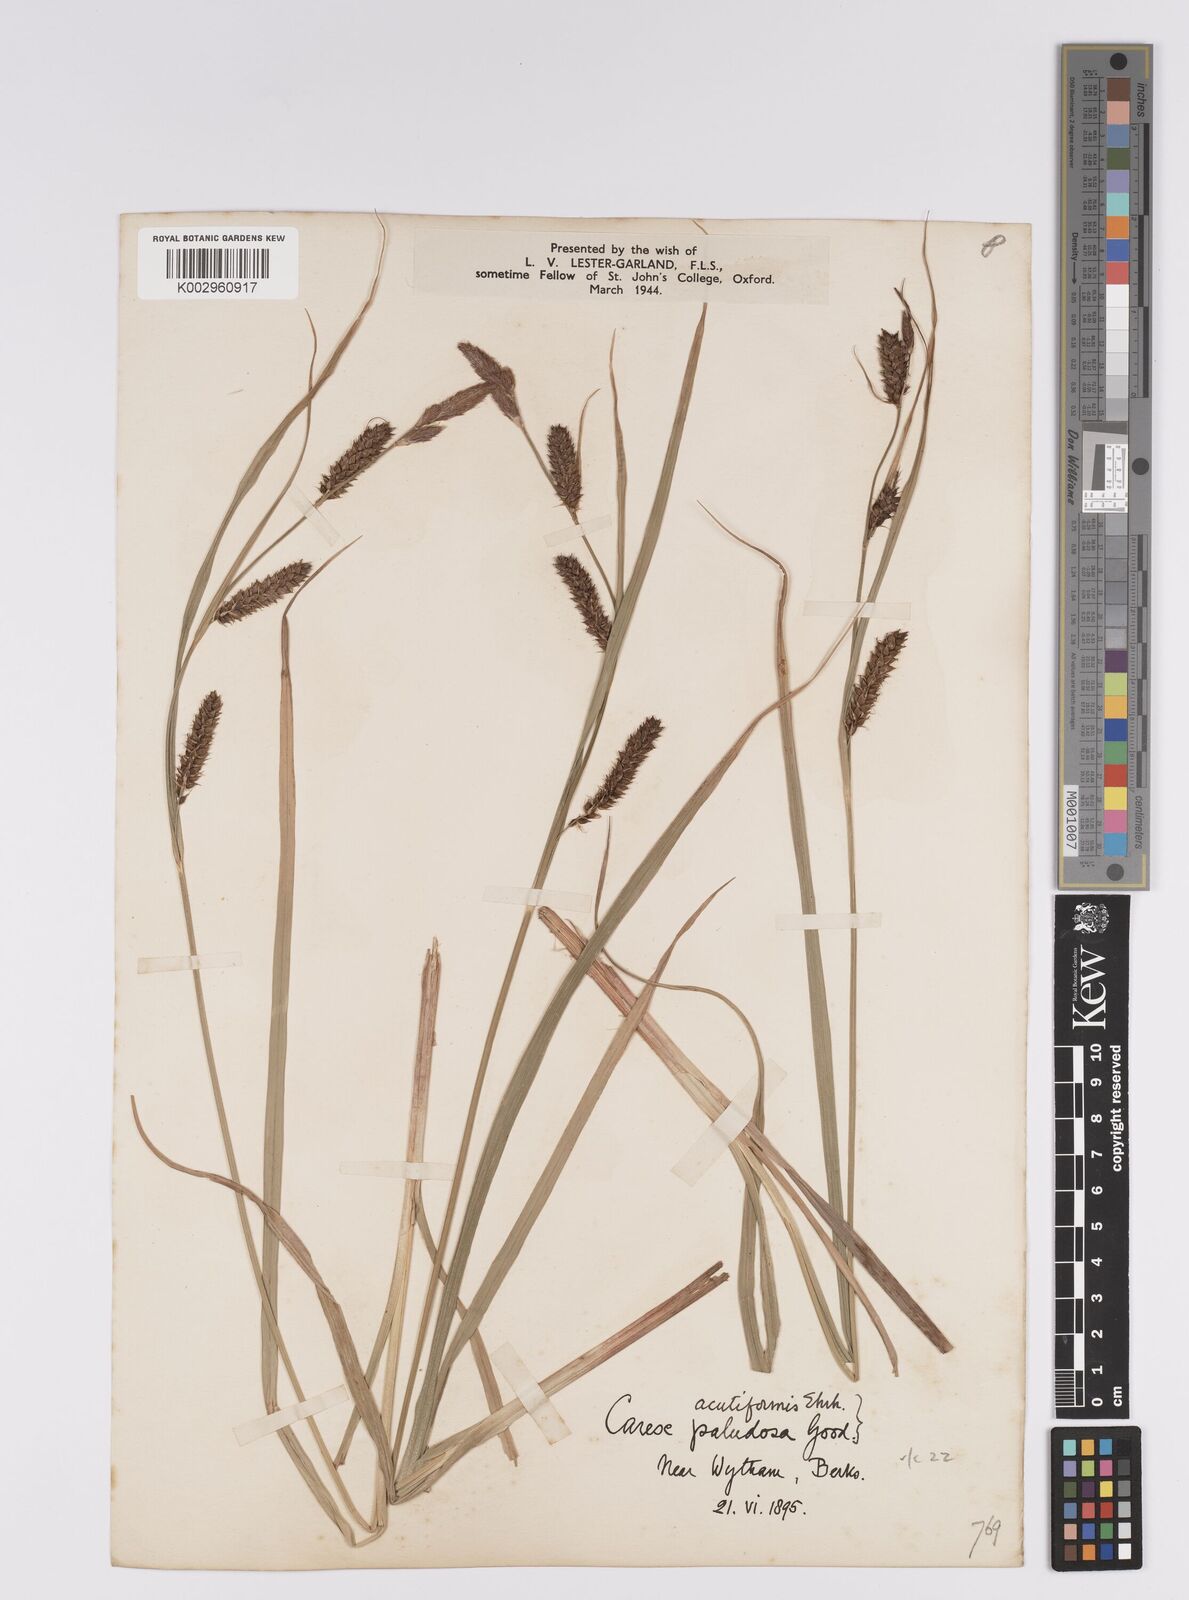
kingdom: Plantae
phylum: Tracheophyta
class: Liliopsida
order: Poales
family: Cyperaceae
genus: Carex
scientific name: Carex riparia
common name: Greater pond-sedge
